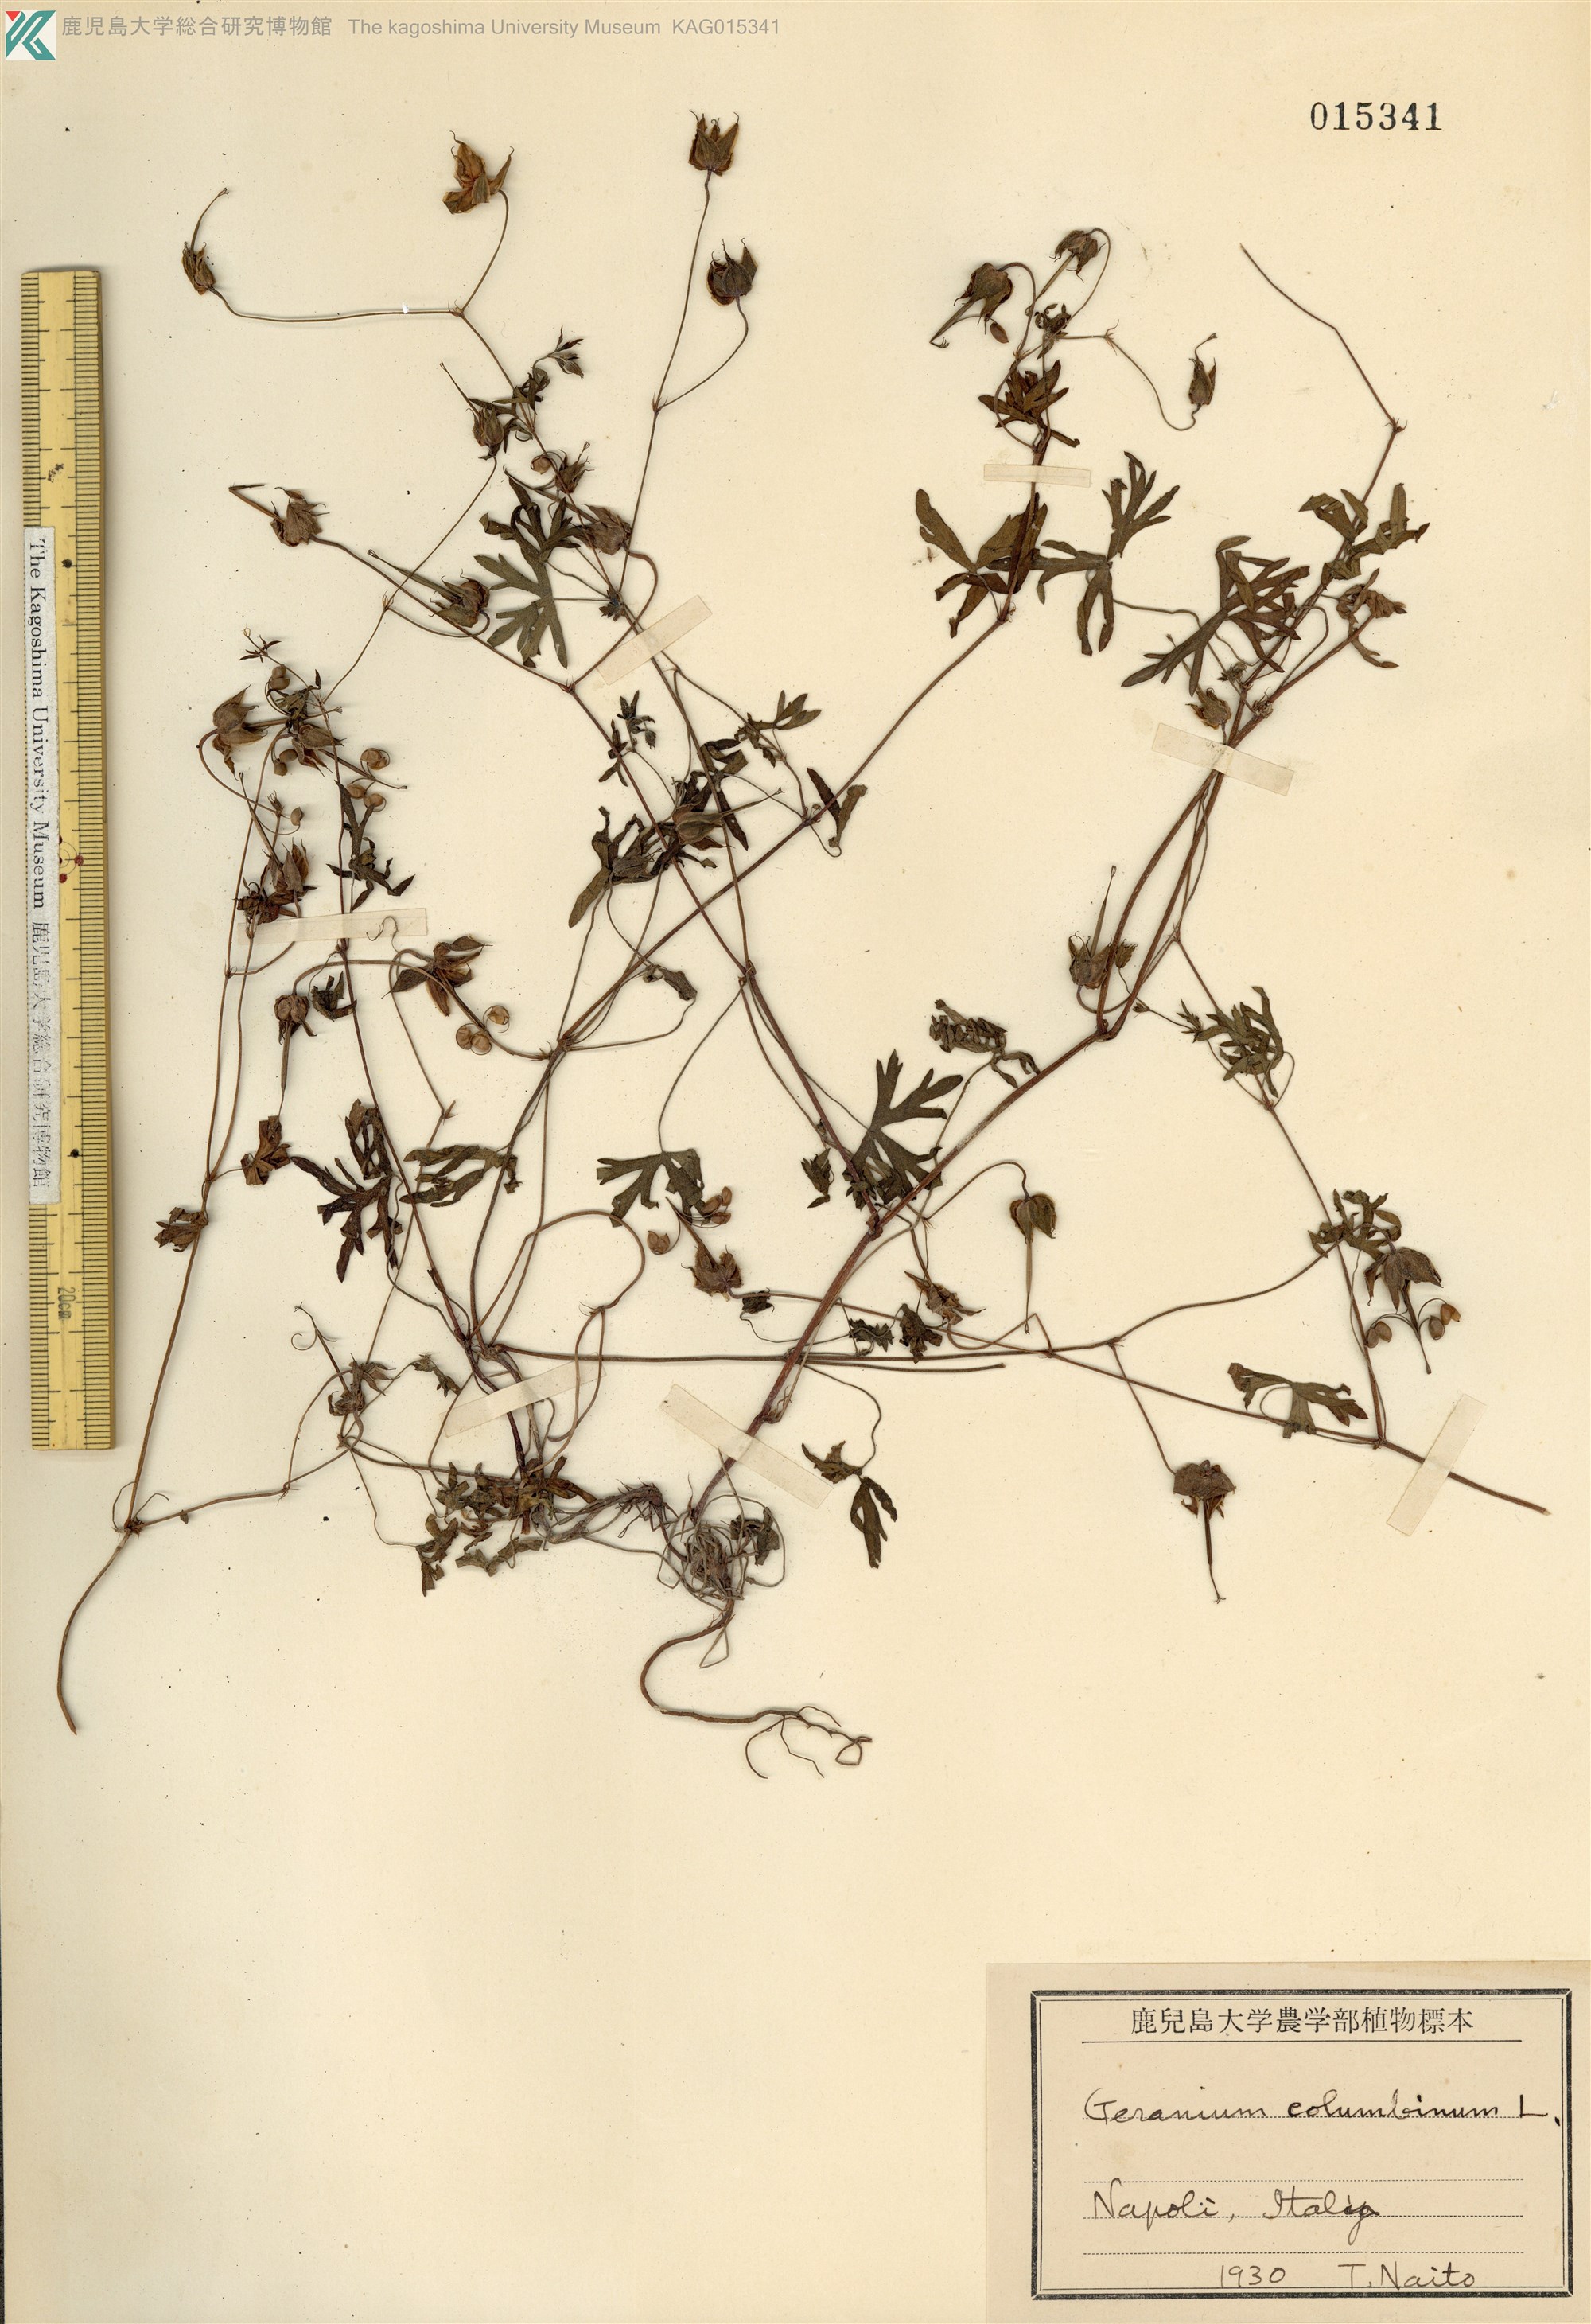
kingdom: Plantae
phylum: Tracheophyta
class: Magnoliopsida
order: Geraniales
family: Geraniaceae
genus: Geranium
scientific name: Geranium columbinum
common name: Long-stalked crane's-bill
